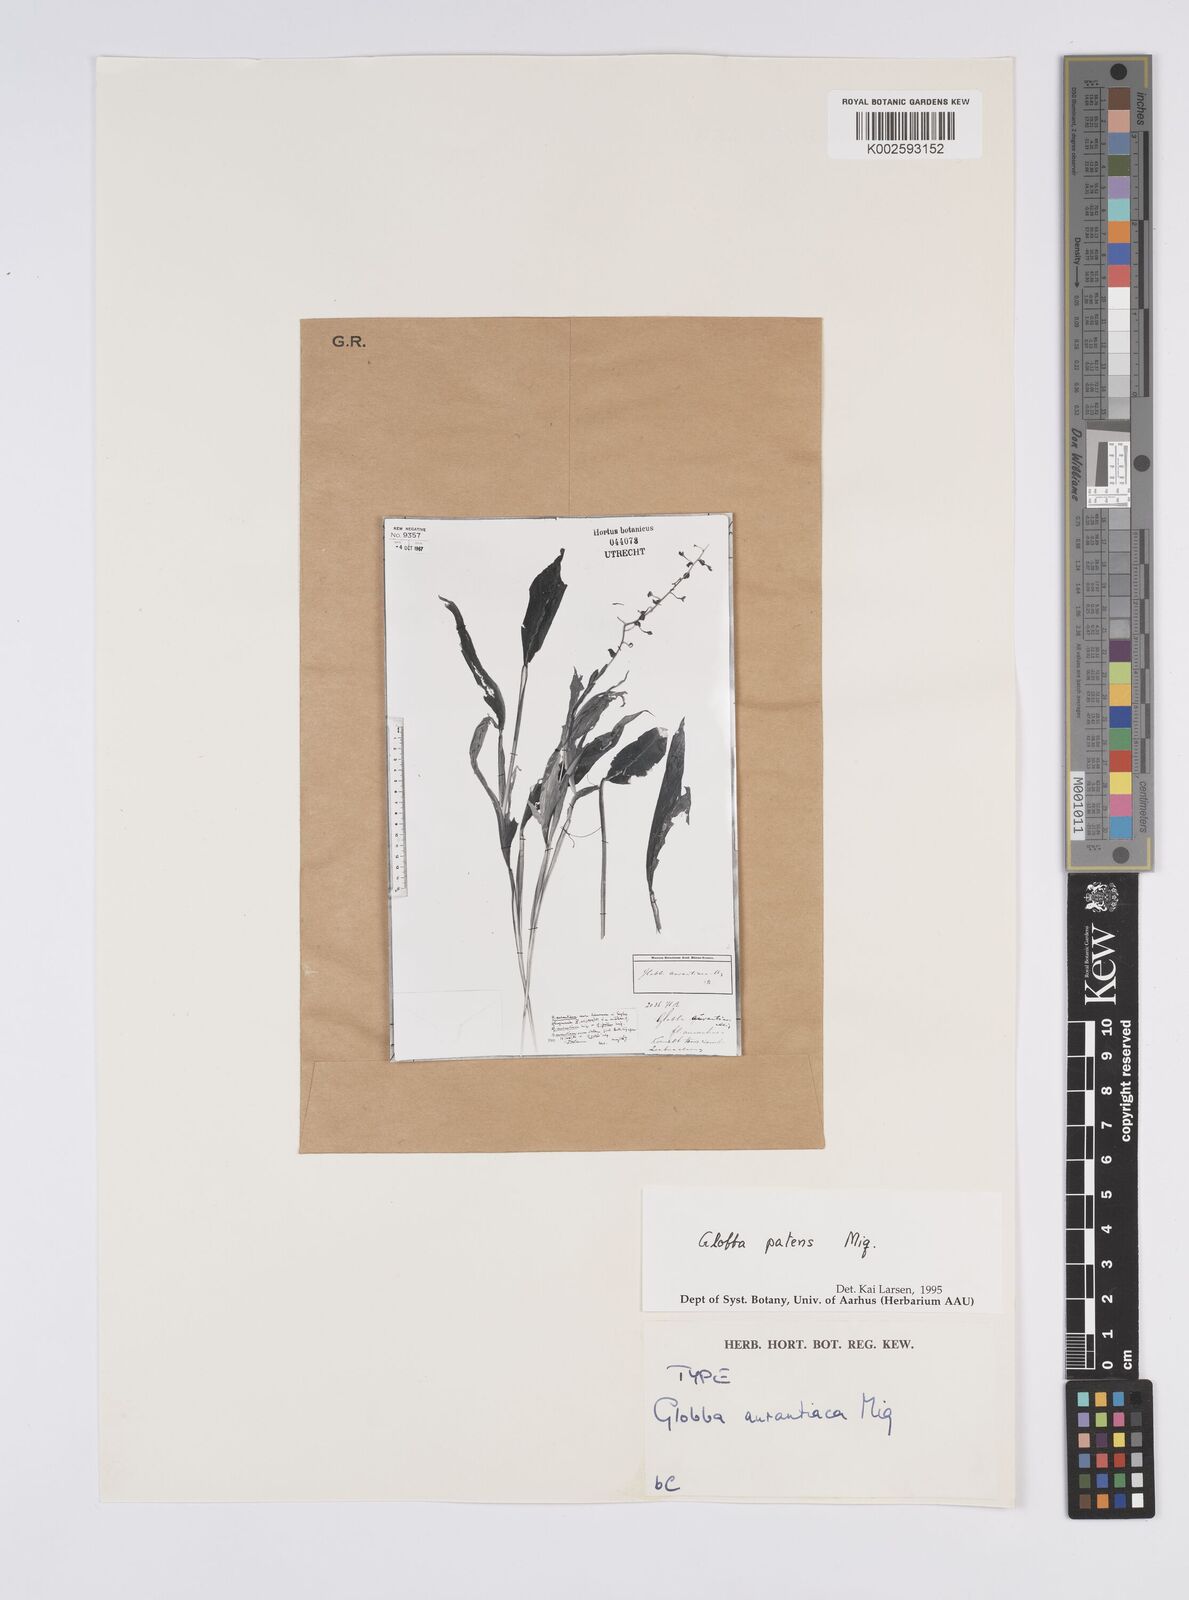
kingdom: Plantae
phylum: Tracheophyta
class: Liliopsida
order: Zingiberales
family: Zingiberaceae
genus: Globba
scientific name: Globba patens
